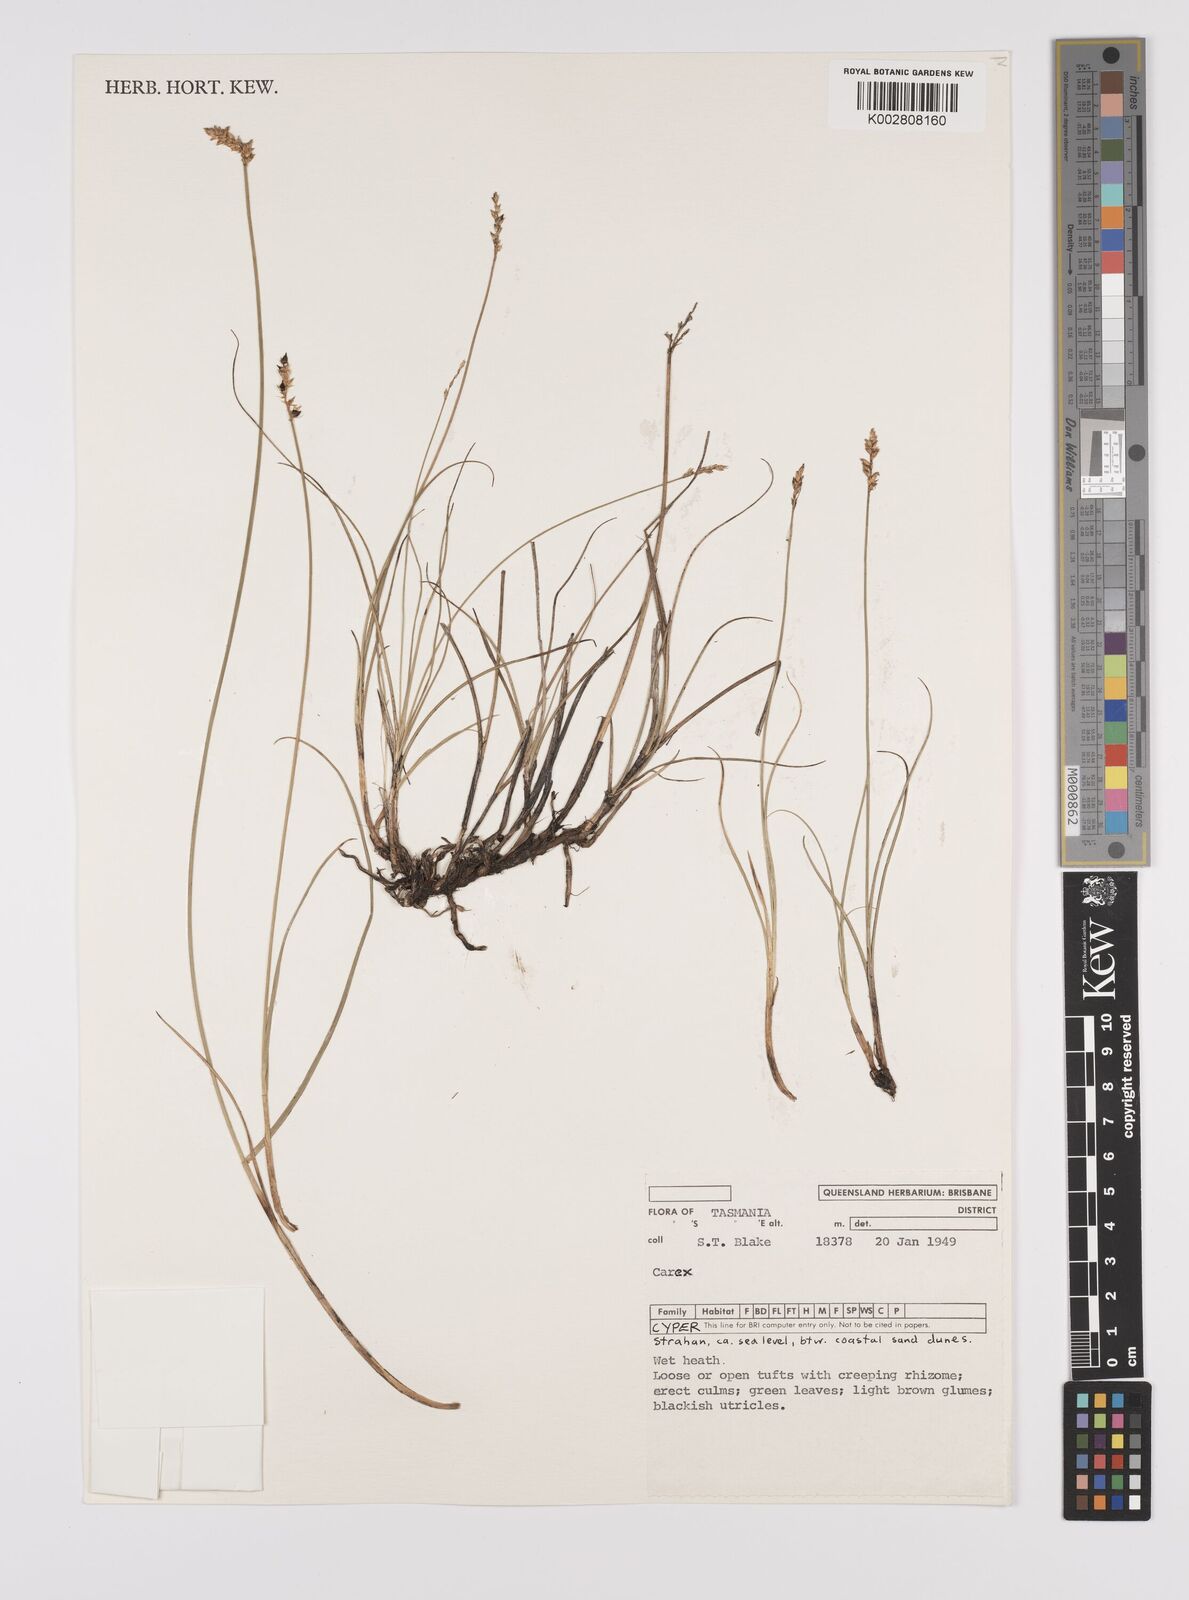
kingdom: Plantae
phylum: Tracheophyta
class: Liliopsida
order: Poales
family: Cyperaceae
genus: Carex
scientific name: Carex diandra
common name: Lesser tussock-sedge
